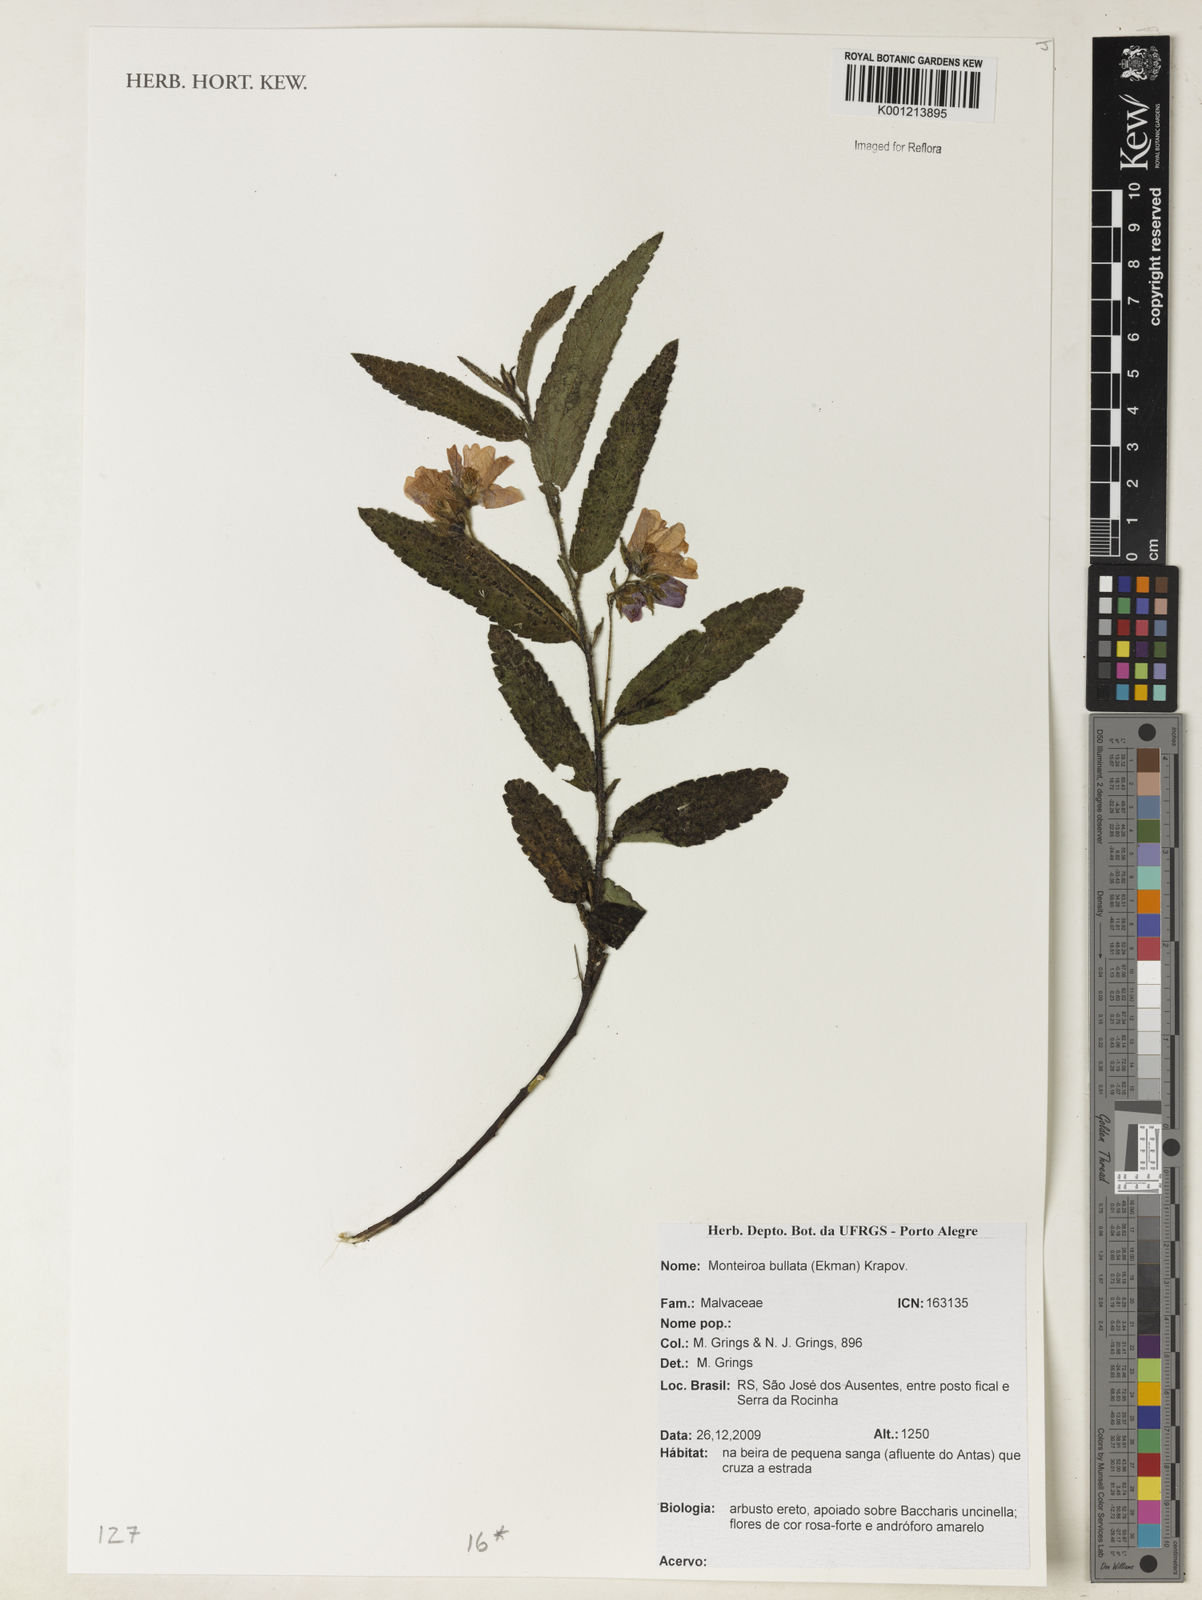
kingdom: Plantae
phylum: Tracheophyta
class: Magnoliopsida
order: Malvales
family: Malvaceae
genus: Monteiroa
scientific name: Monteiroa bullata
